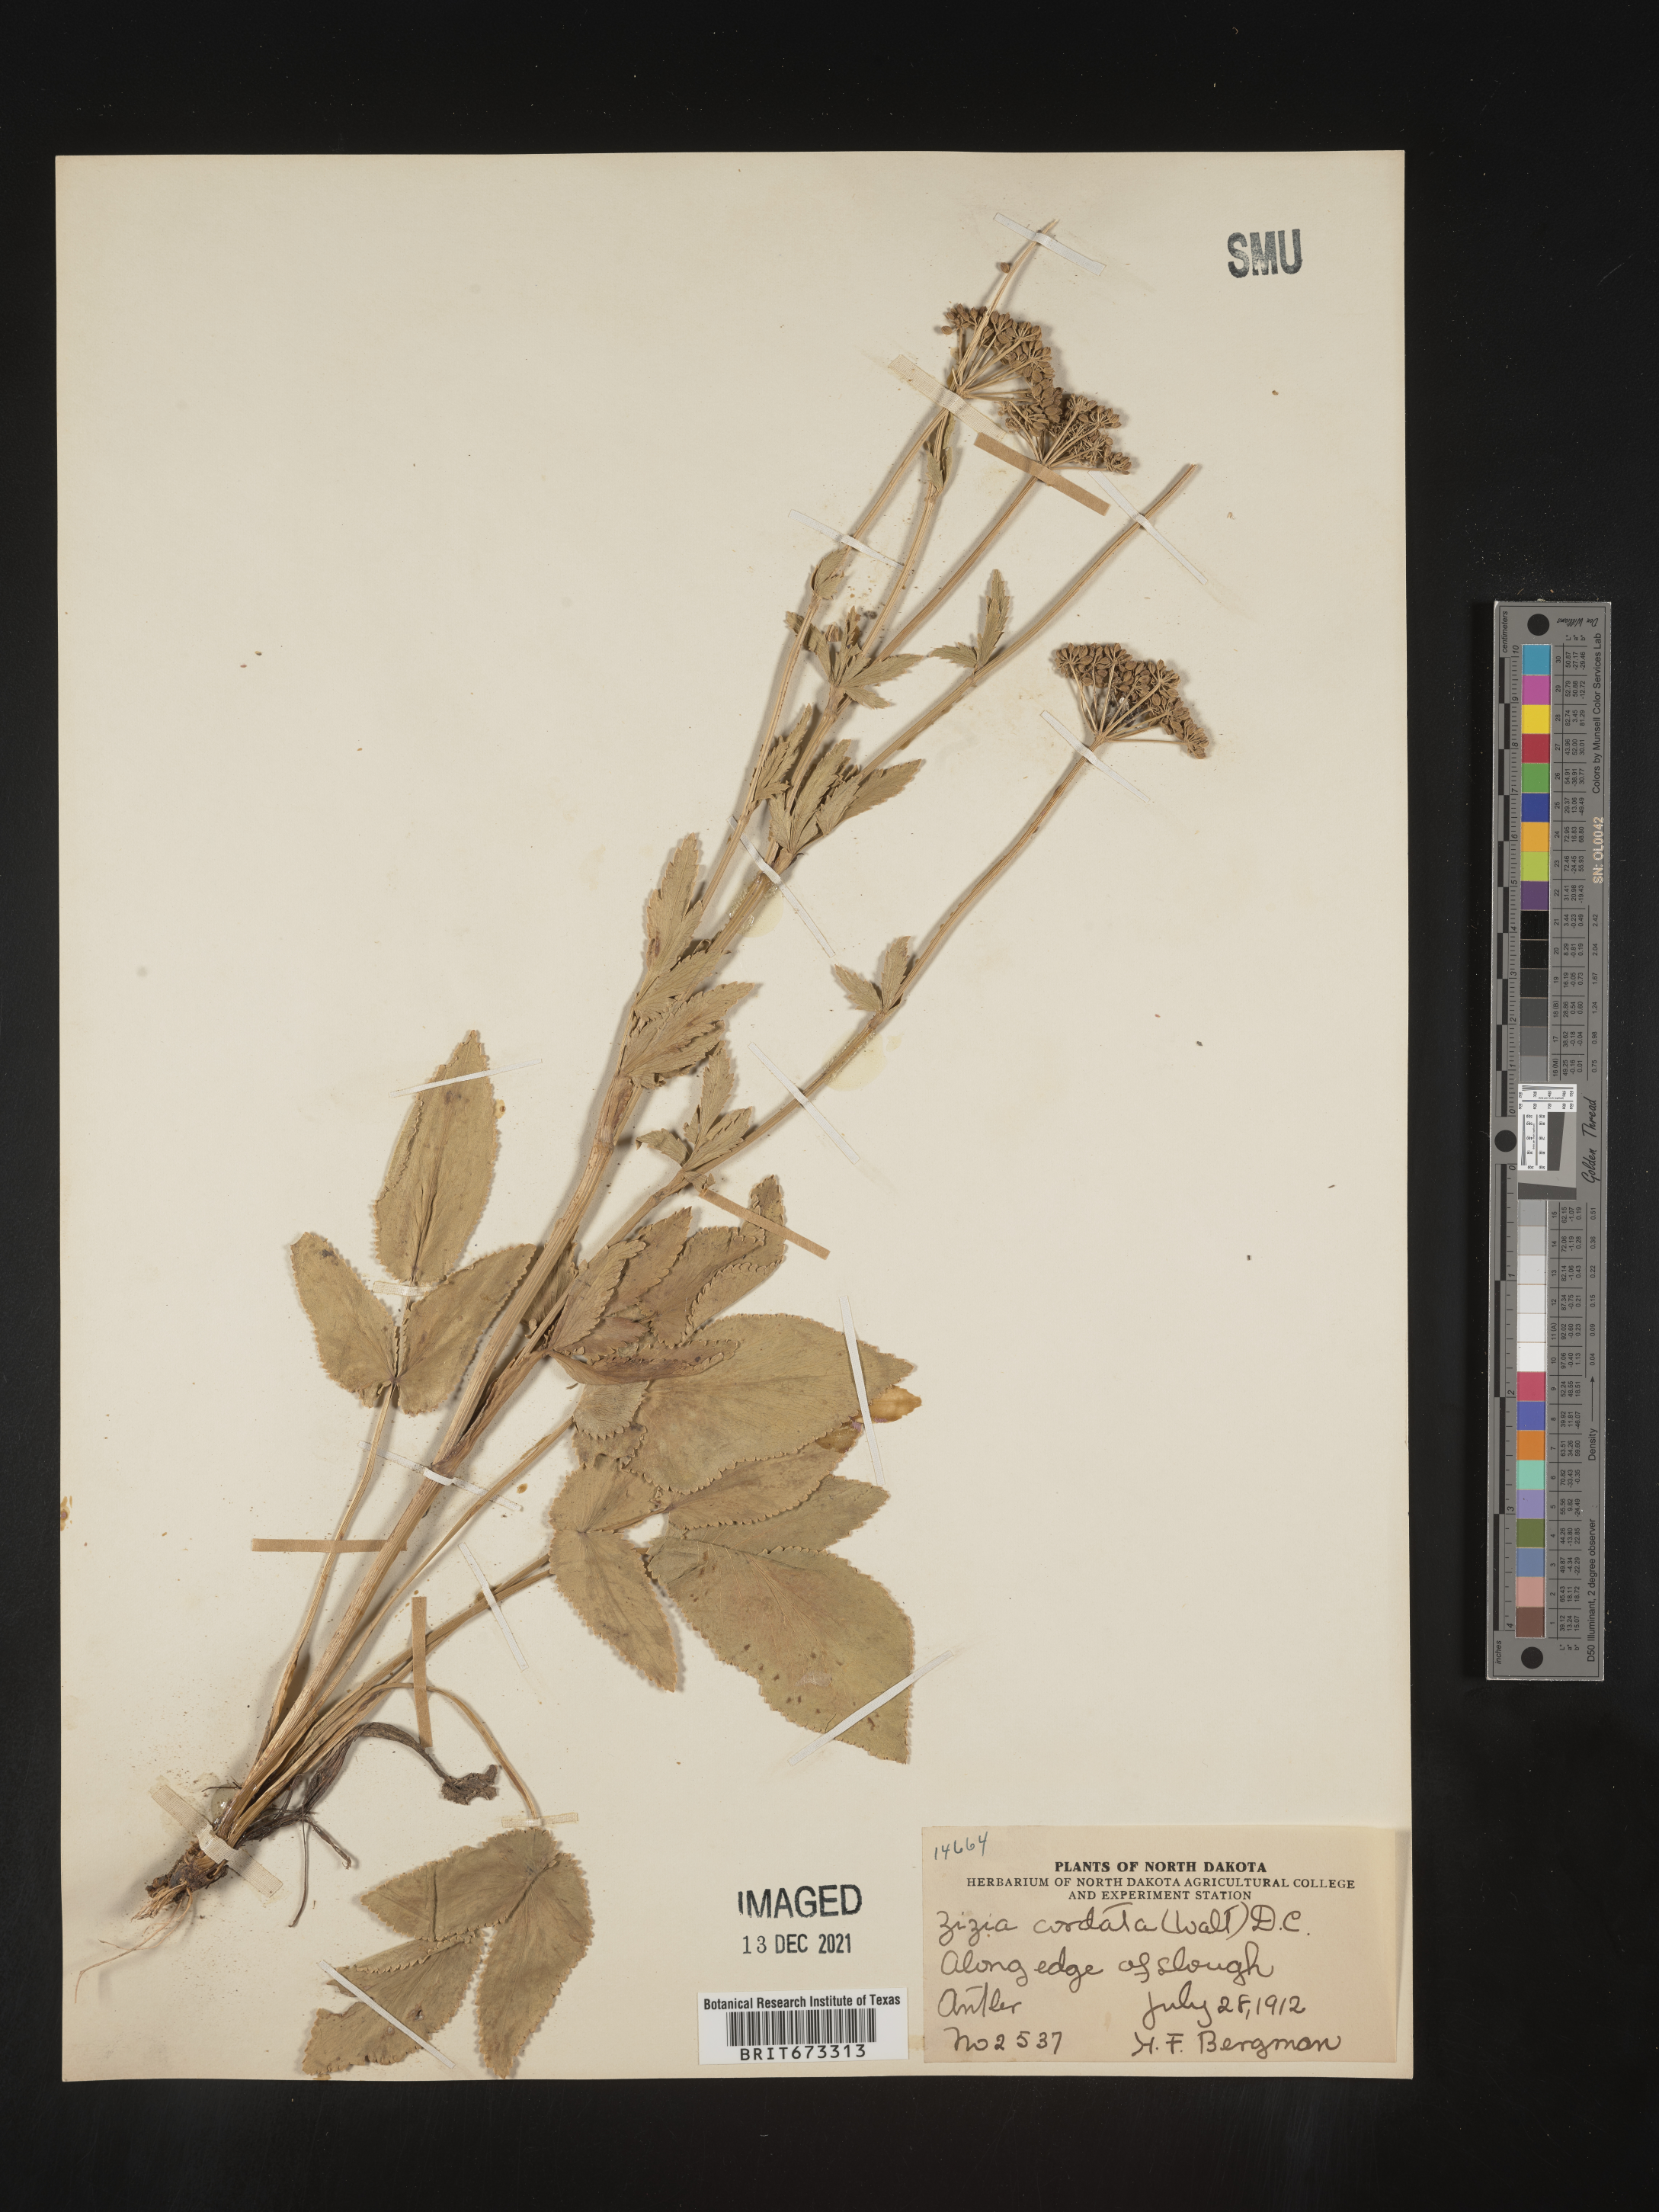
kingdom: Plantae
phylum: Tracheophyta
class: Magnoliopsida
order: Apiales
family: Apiaceae
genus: Zizia
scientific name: Zizia aptera
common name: Heart-leaved alexanders
